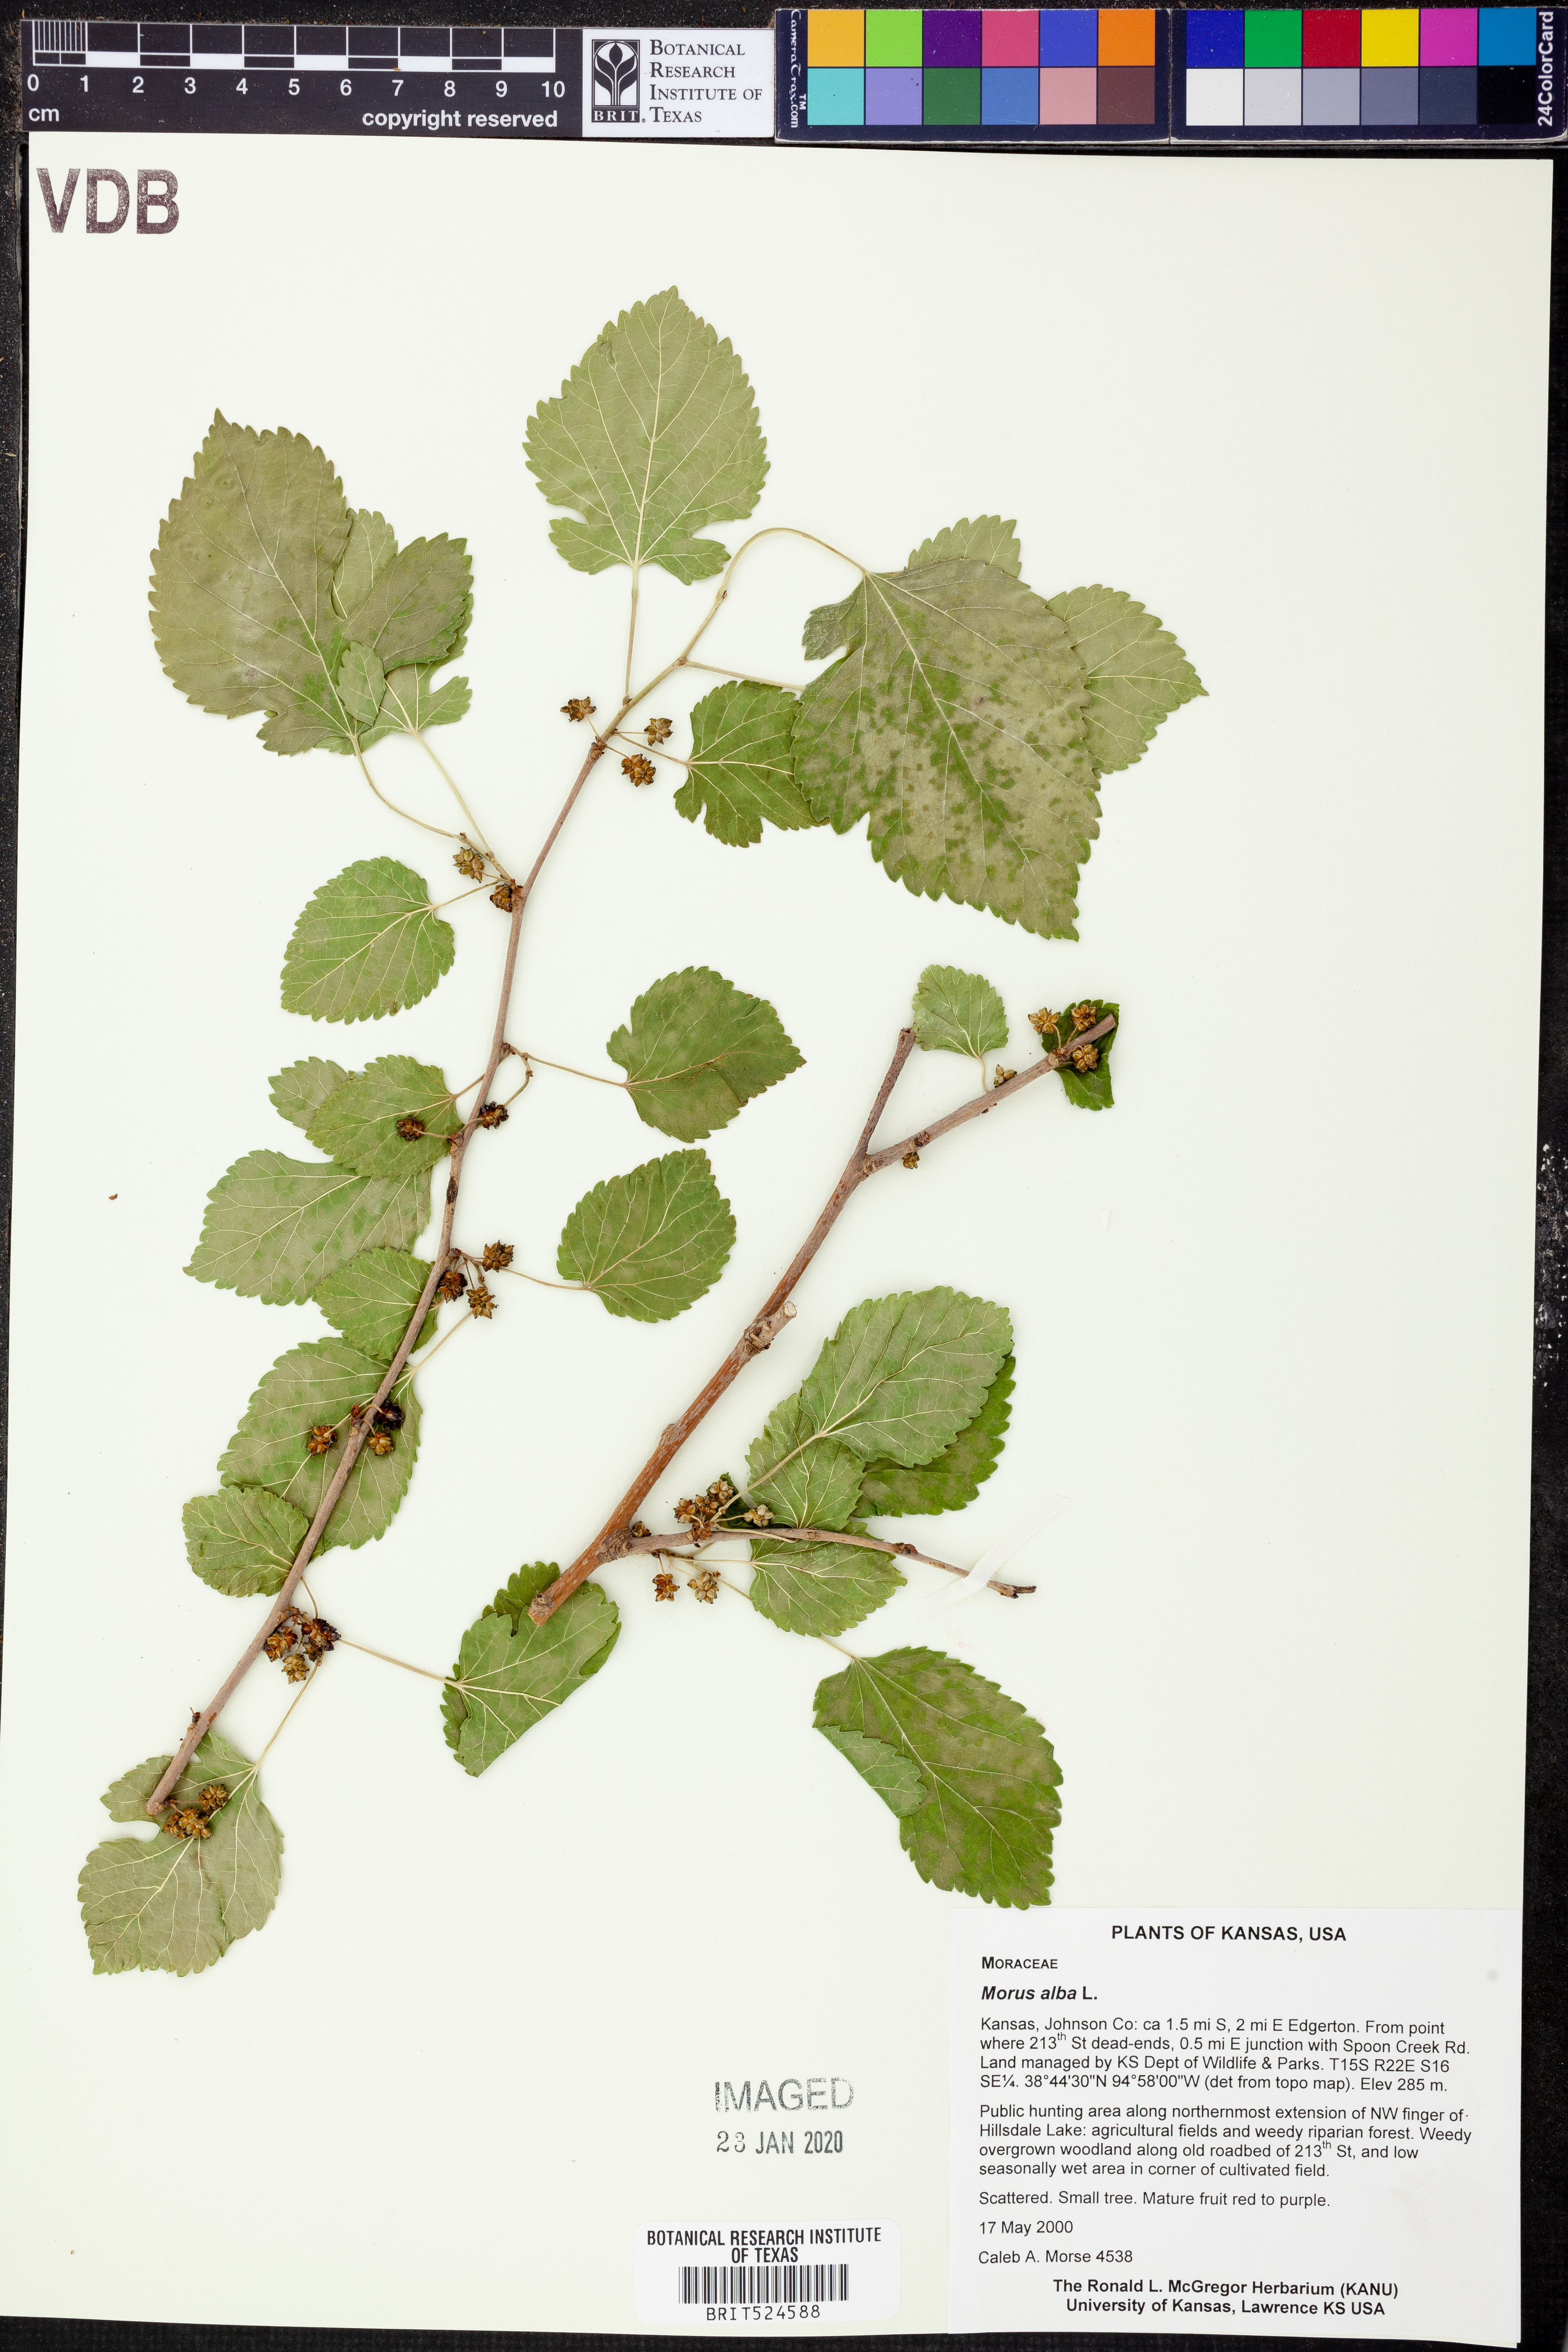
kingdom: Plantae
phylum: Tracheophyta
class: Magnoliopsida
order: Rosales
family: Moraceae
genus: Morus
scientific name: Morus alba
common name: White mulberry
